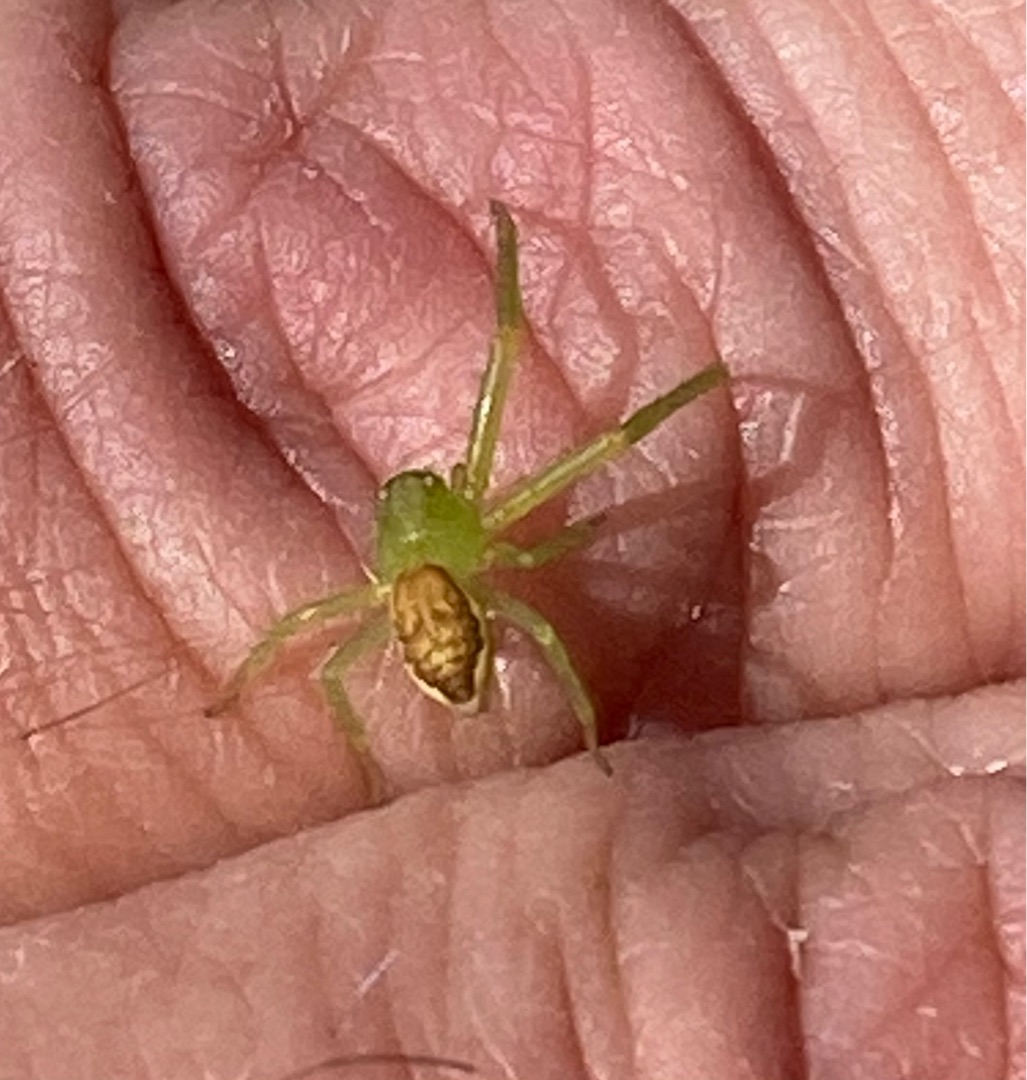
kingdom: Animalia
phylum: Arthropoda
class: Arachnida
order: Araneae
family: Thomisidae
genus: Diaea
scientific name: Diaea dorsata
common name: Grøn krabbeedderkop
